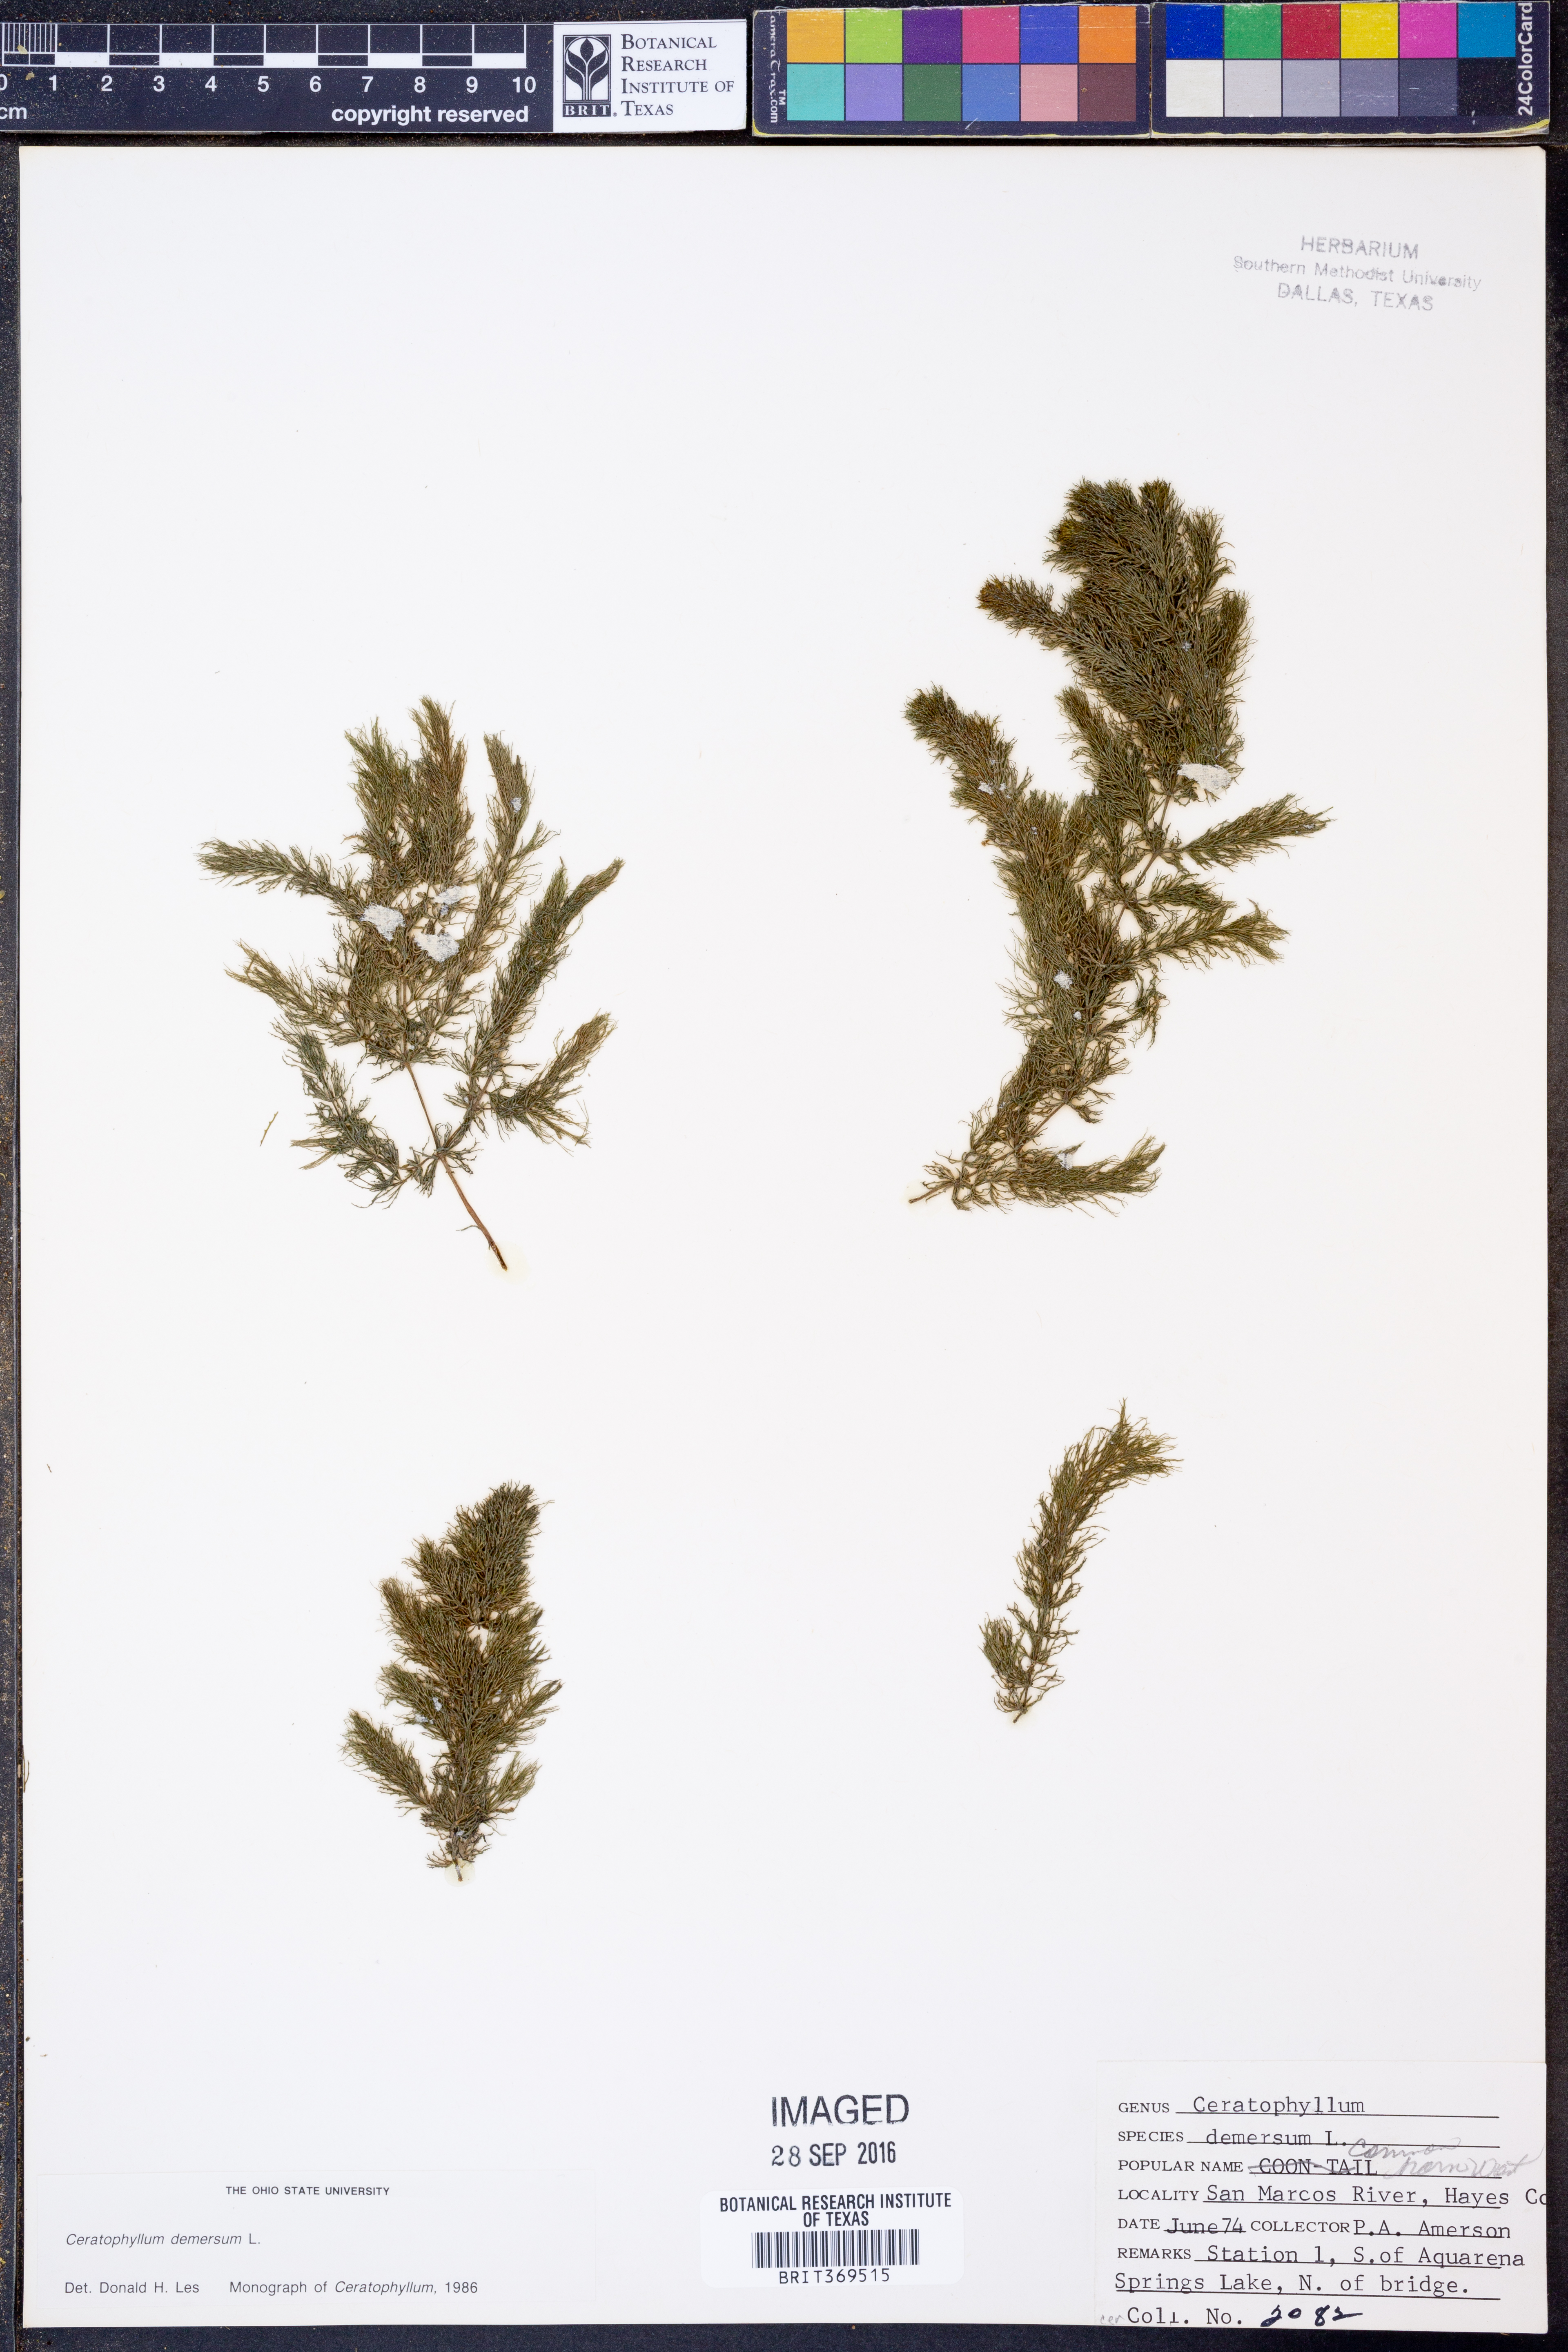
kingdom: Plantae
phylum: Tracheophyta
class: Magnoliopsida
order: Ceratophyllales
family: Ceratophyllaceae
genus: Ceratophyllum
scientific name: Ceratophyllum demersum
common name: Rigid hornwort
